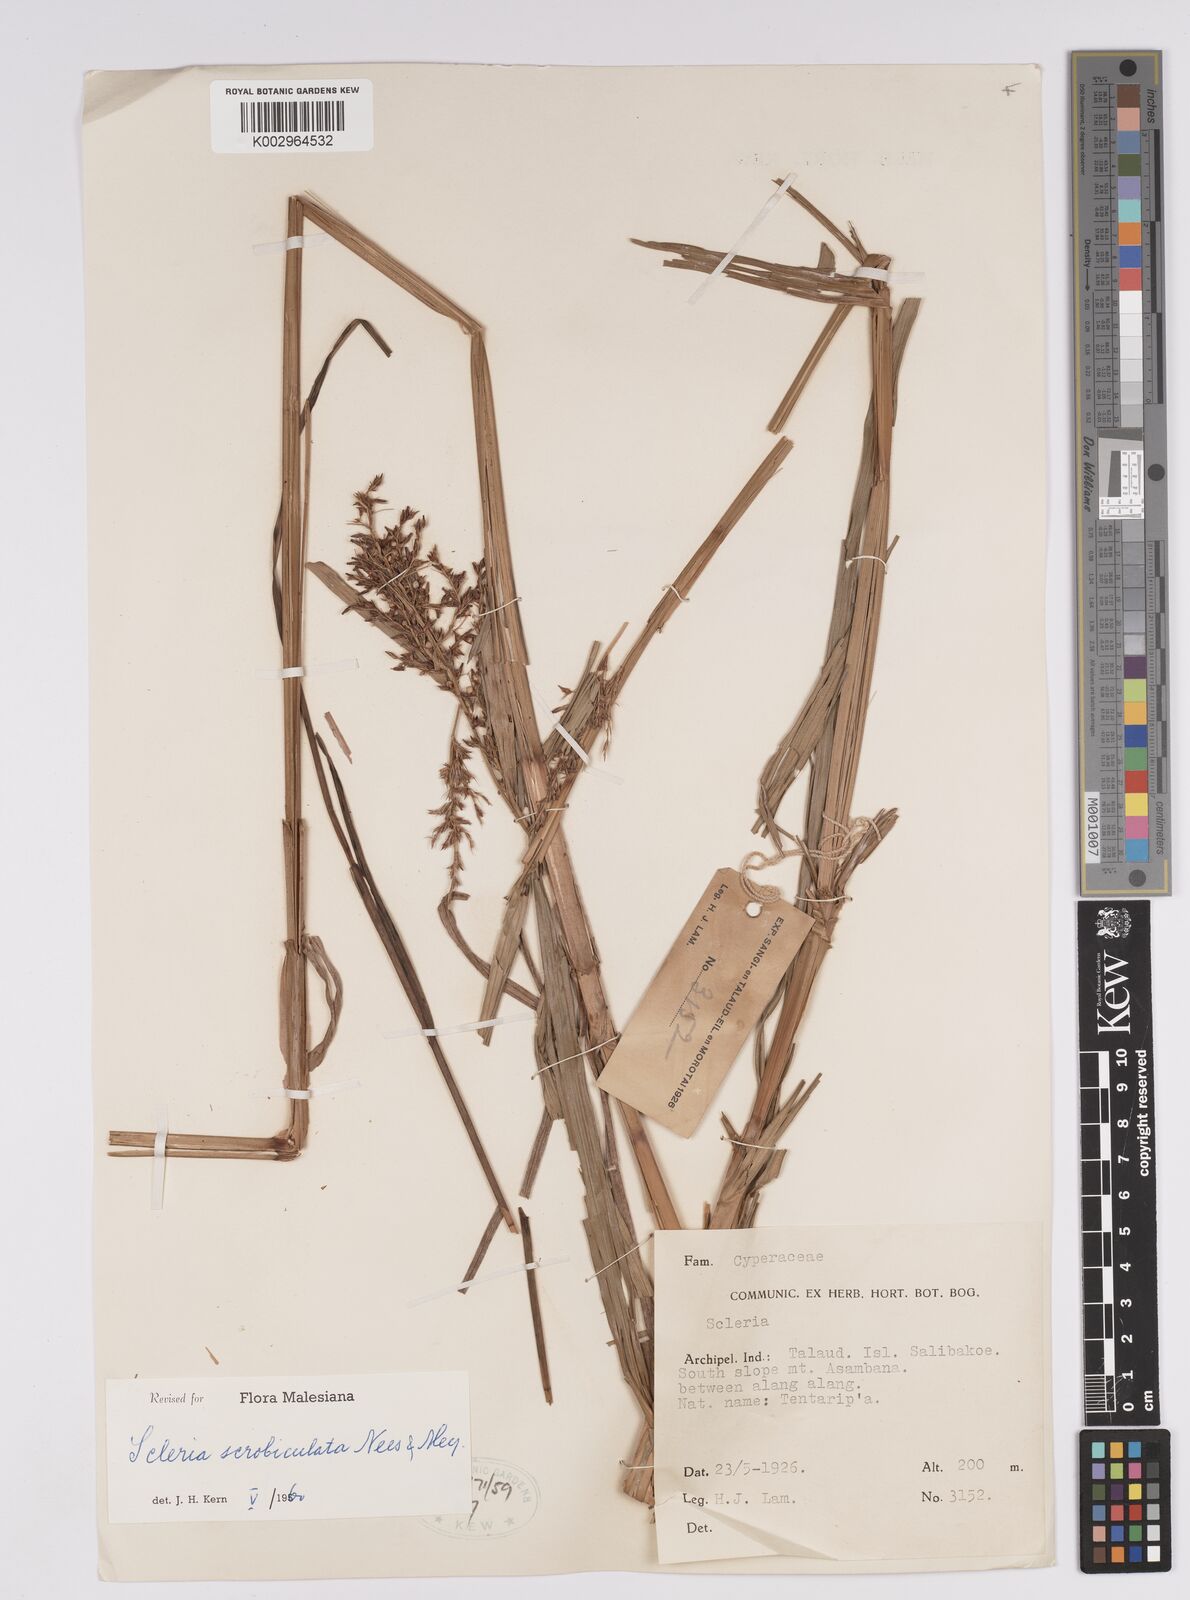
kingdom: Plantae
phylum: Tracheophyta
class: Liliopsida
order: Poales
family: Cyperaceae
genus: Scleria
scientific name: Scleria scrobiculata
